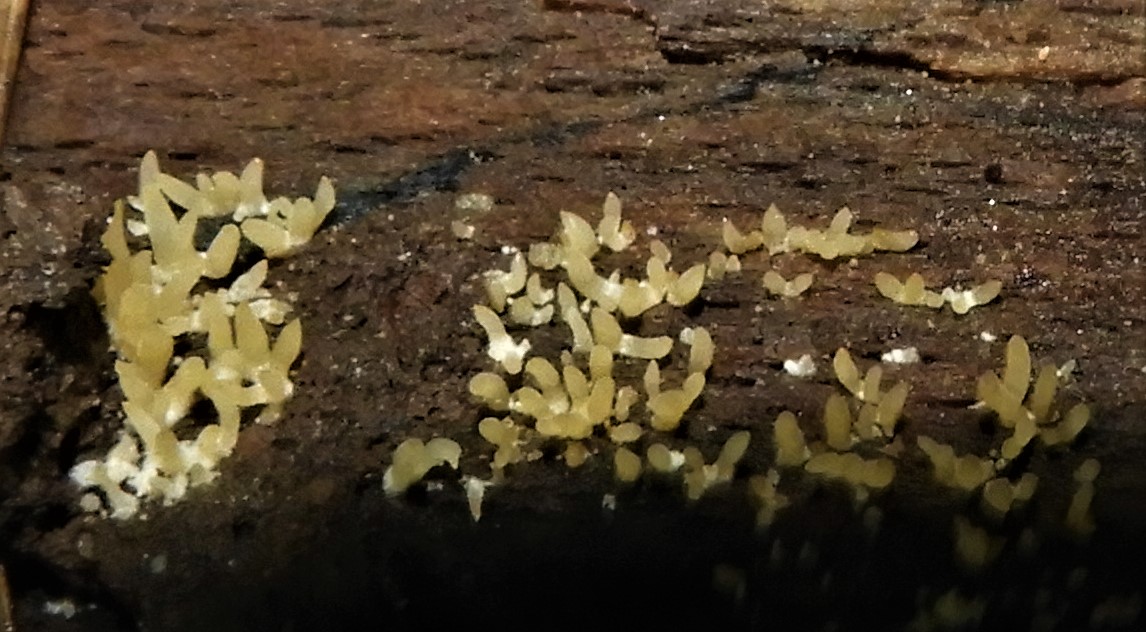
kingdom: Fungi
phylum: Basidiomycota
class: Dacrymycetes
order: Dacrymycetales
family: Dacrymycetaceae
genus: Calocera
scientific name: Calocera cornea
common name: liden guldgaffel
